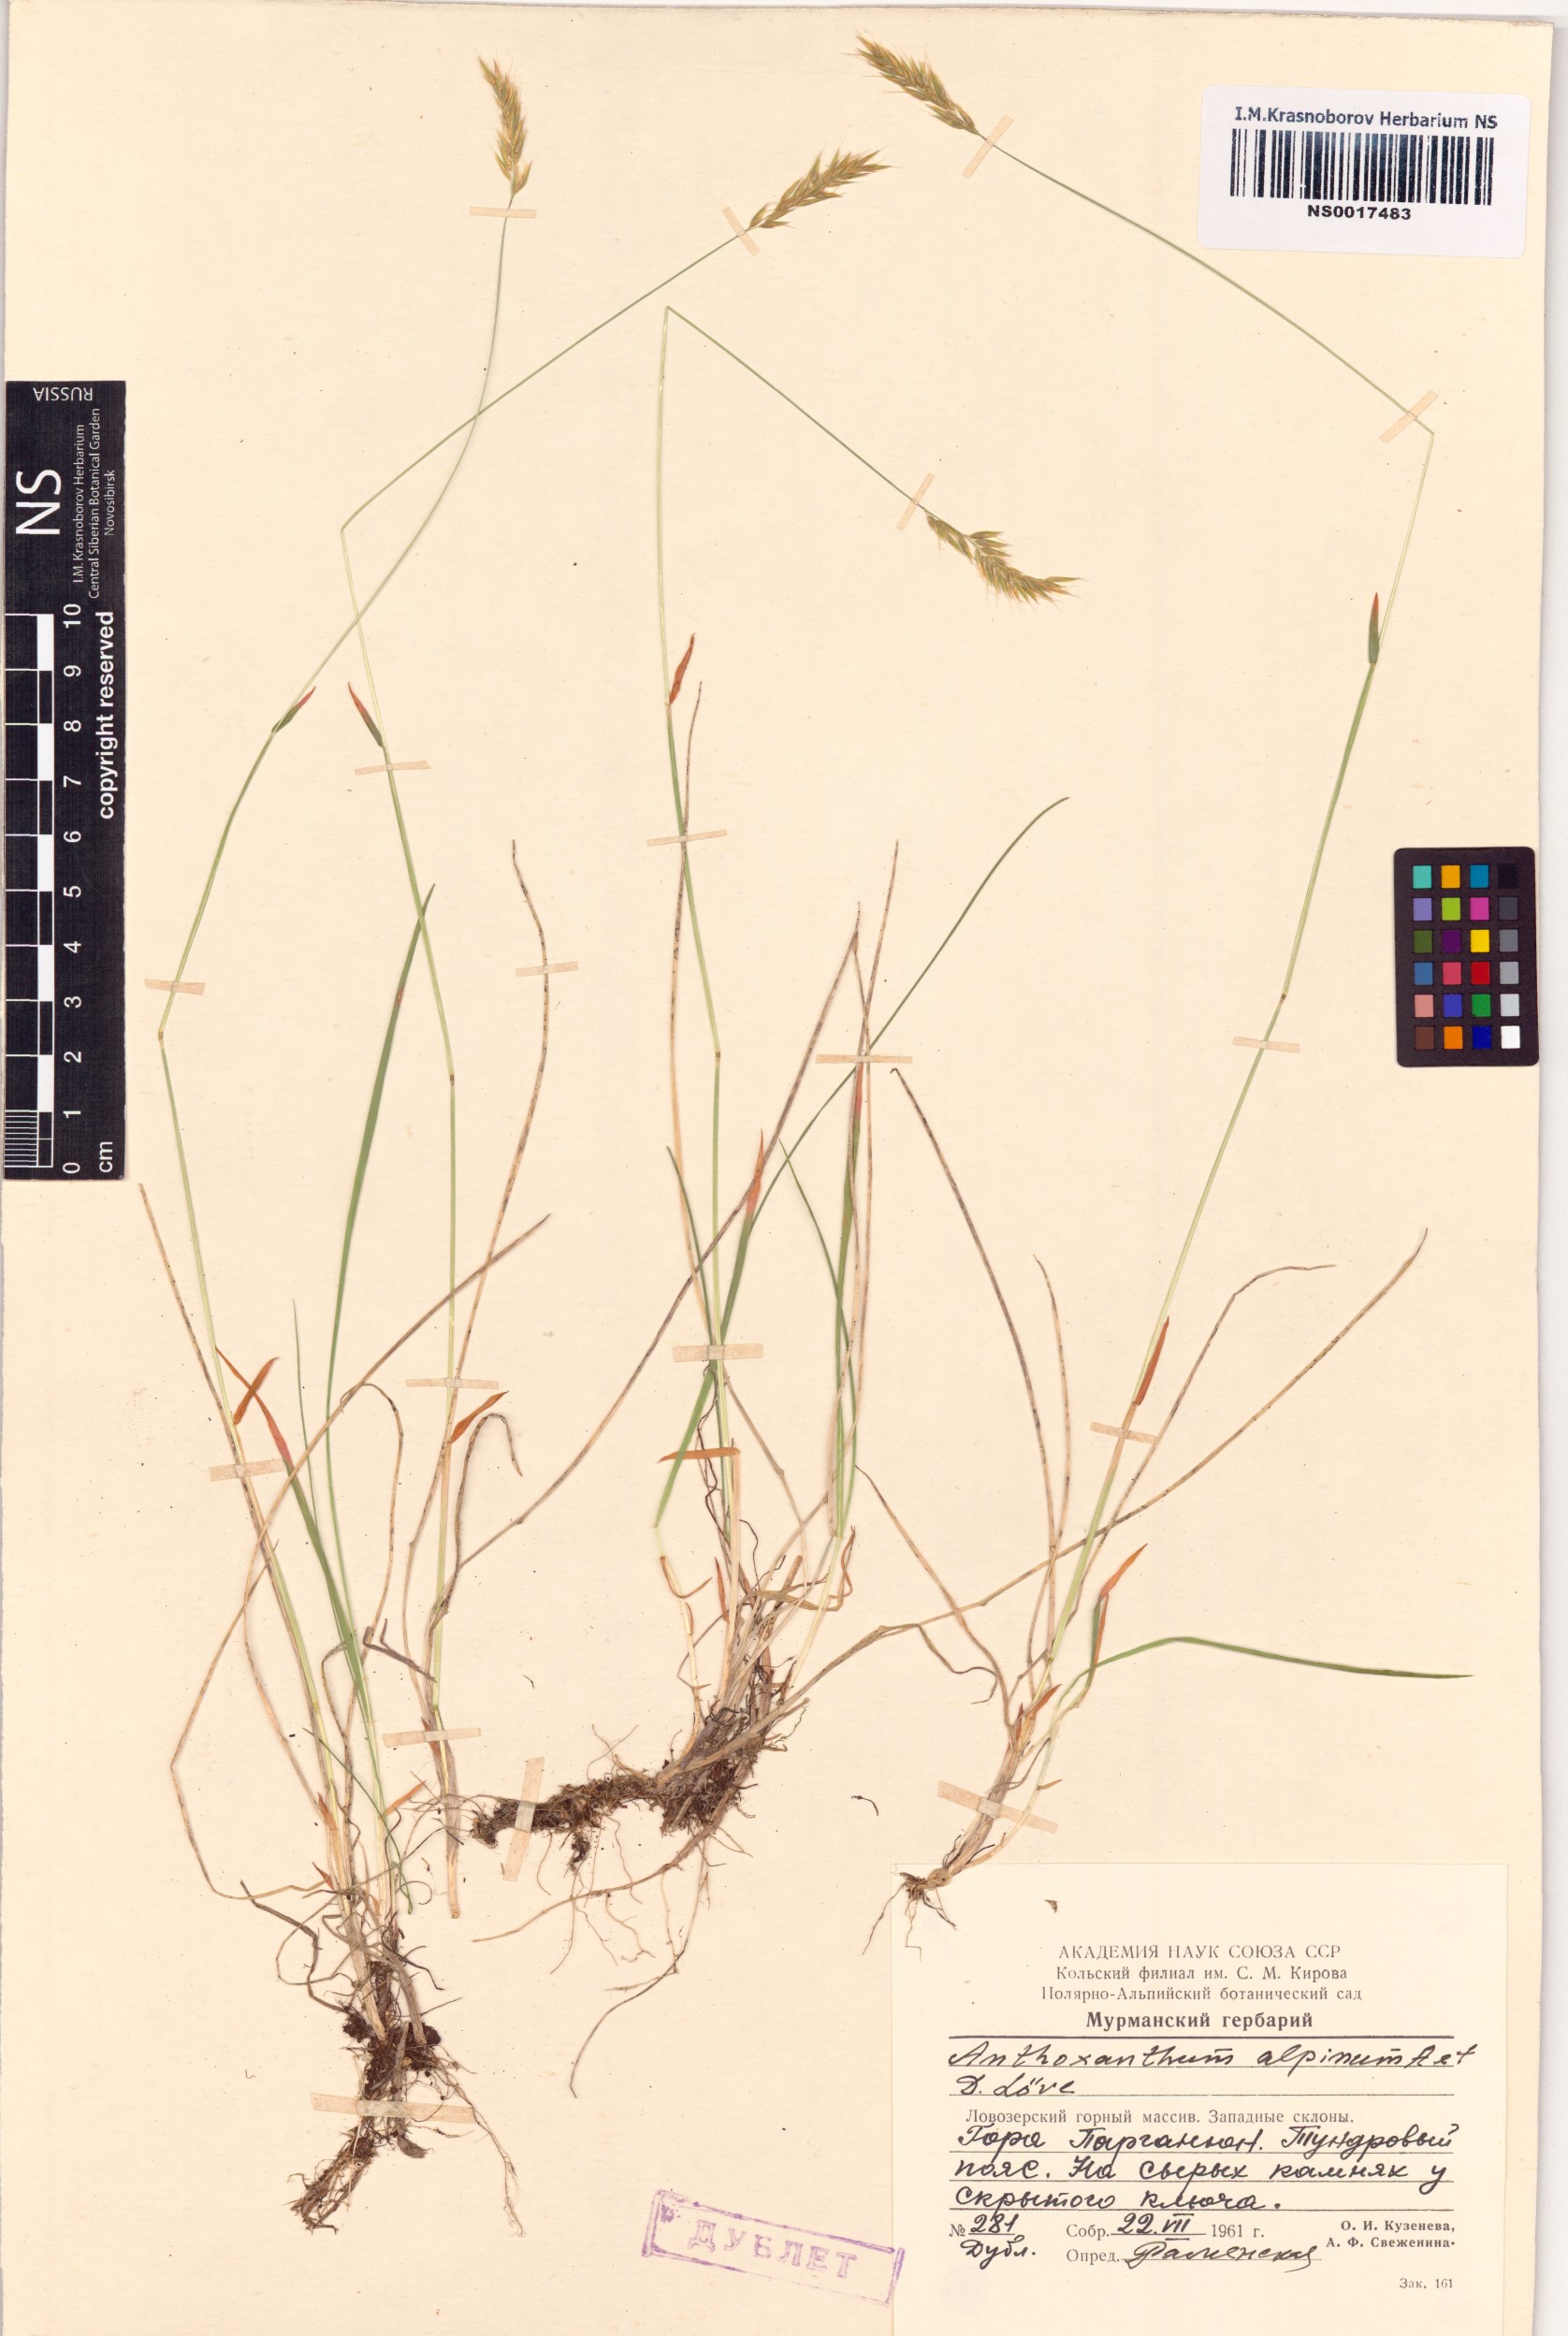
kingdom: Plantae
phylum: Tracheophyta
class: Liliopsida
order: Poales
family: Poaceae
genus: Anthoxanthum
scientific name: Anthoxanthum nipponicum
